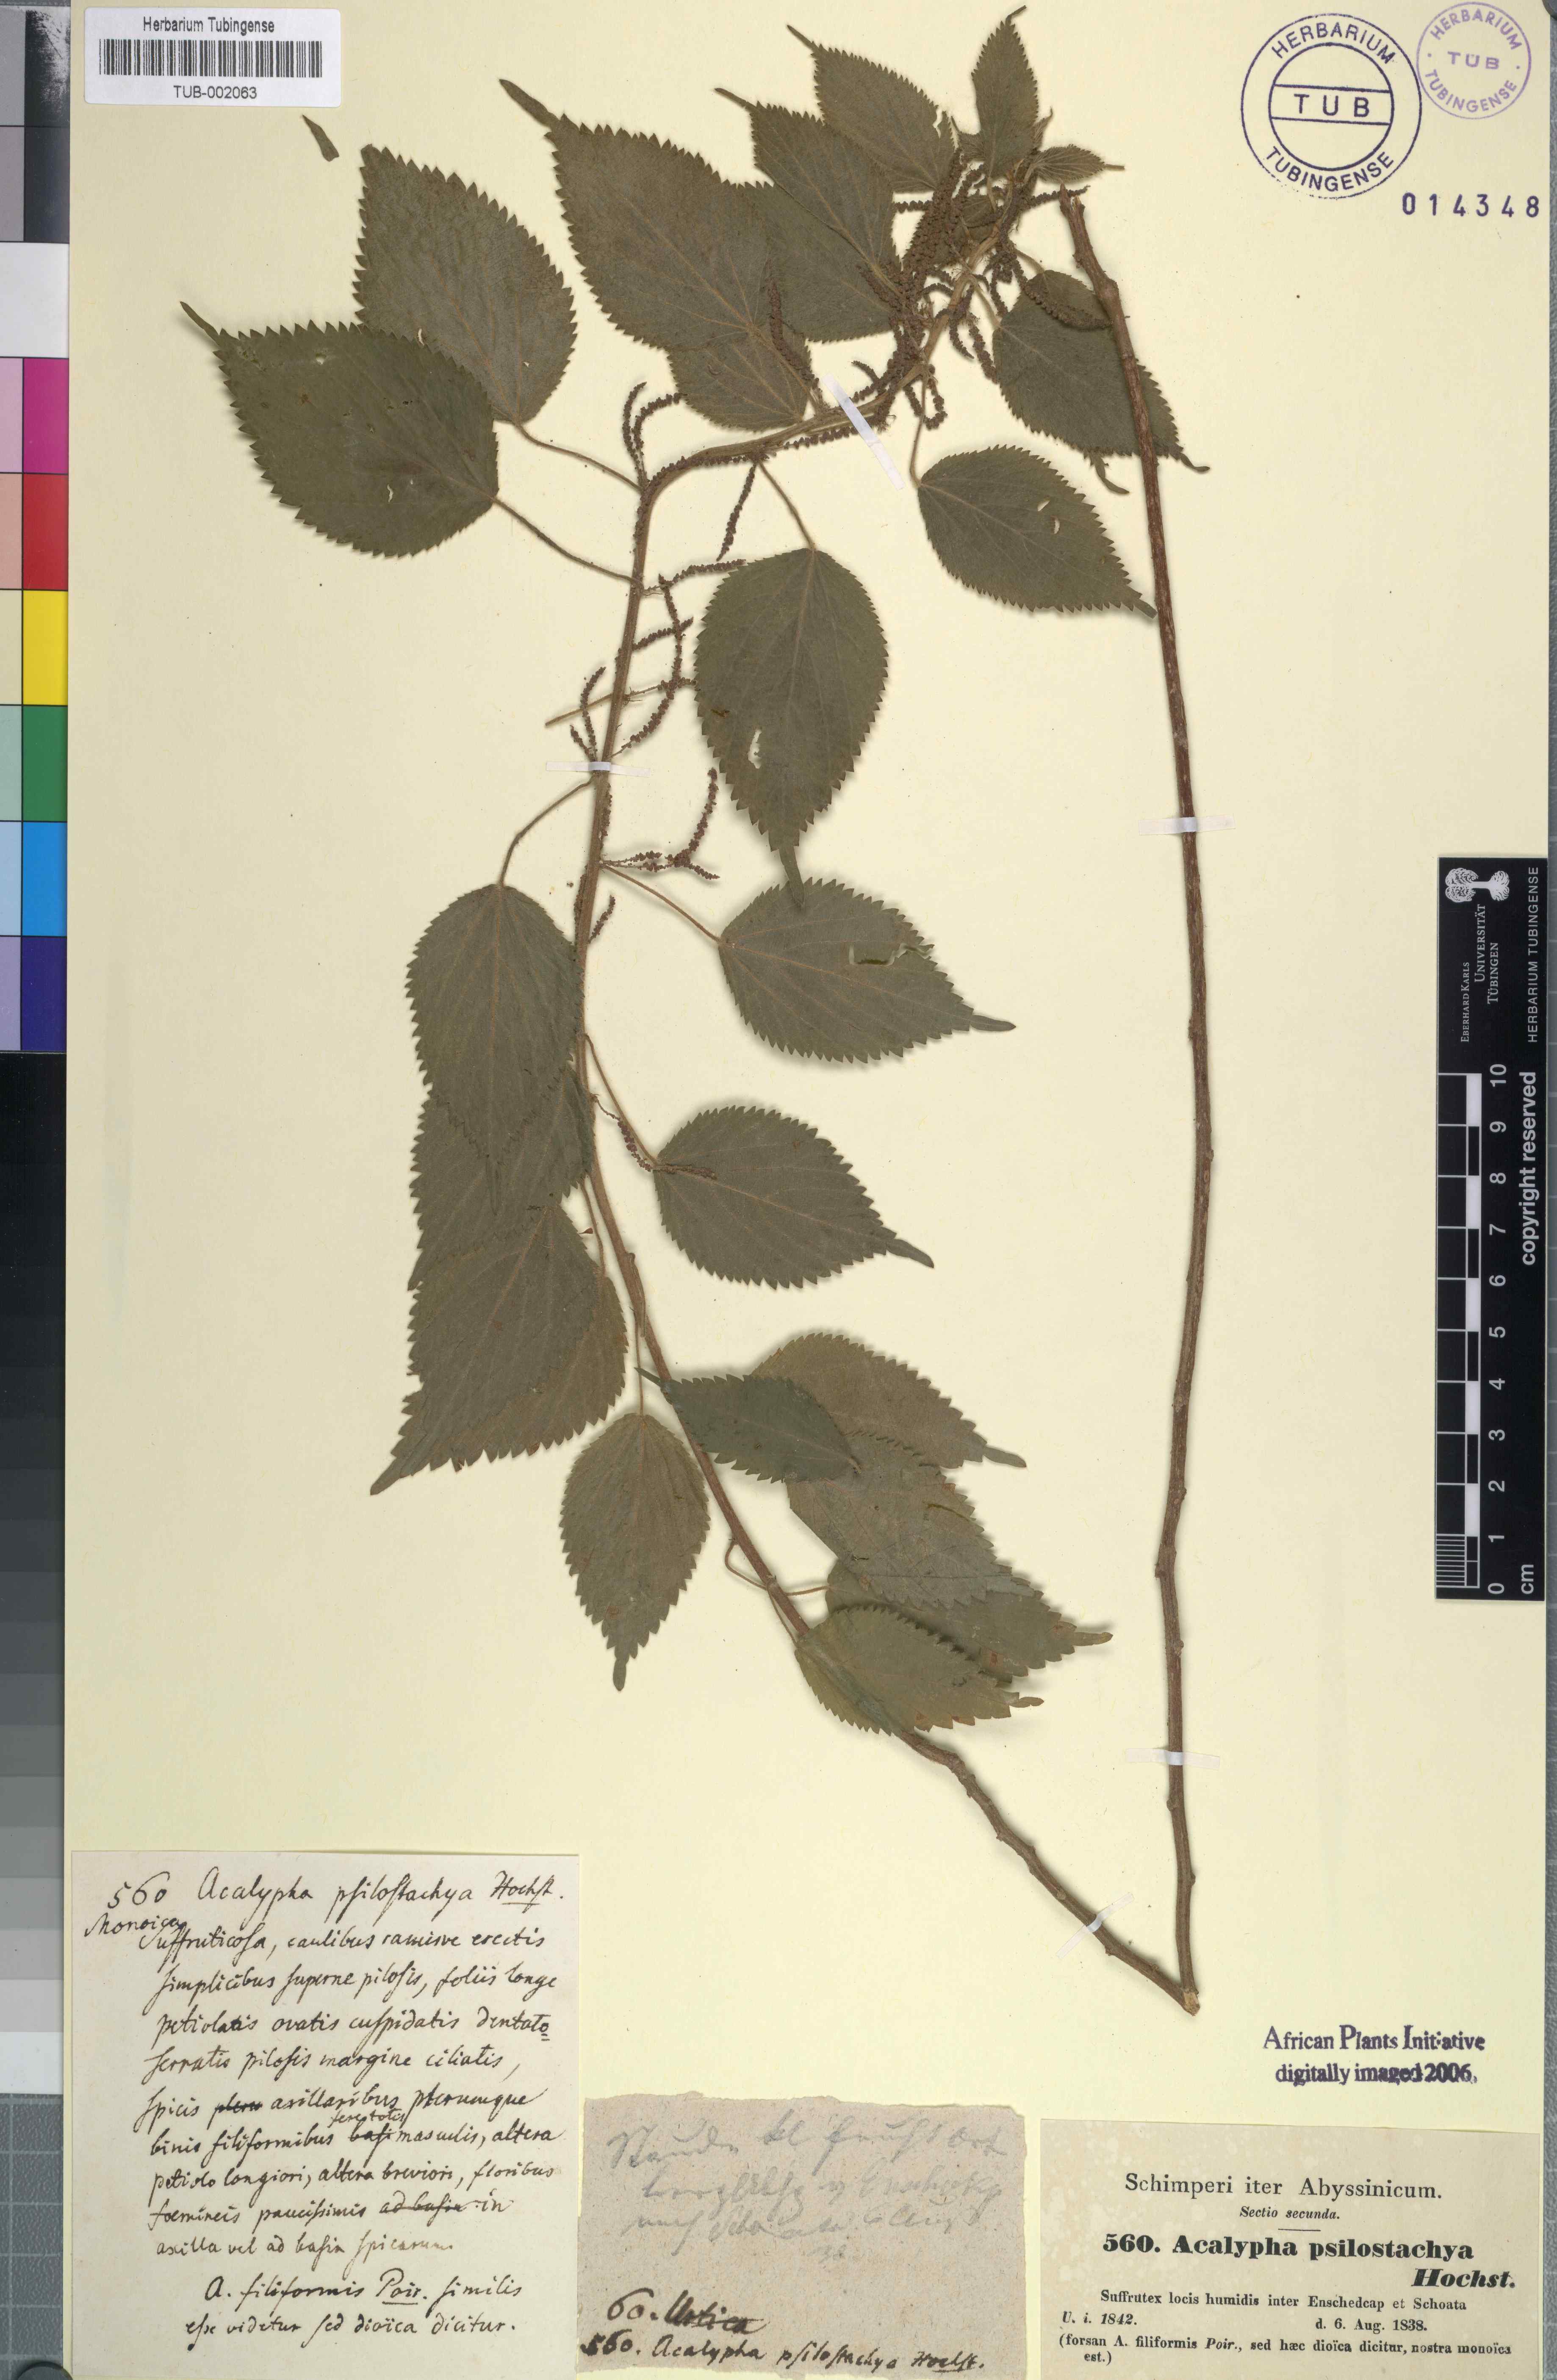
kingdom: Plantae
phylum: Tracheophyta
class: Magnoliopsida
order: Malpighiales
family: Euphorbiaceae
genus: Acalypha
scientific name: Acalypha psilostachya
